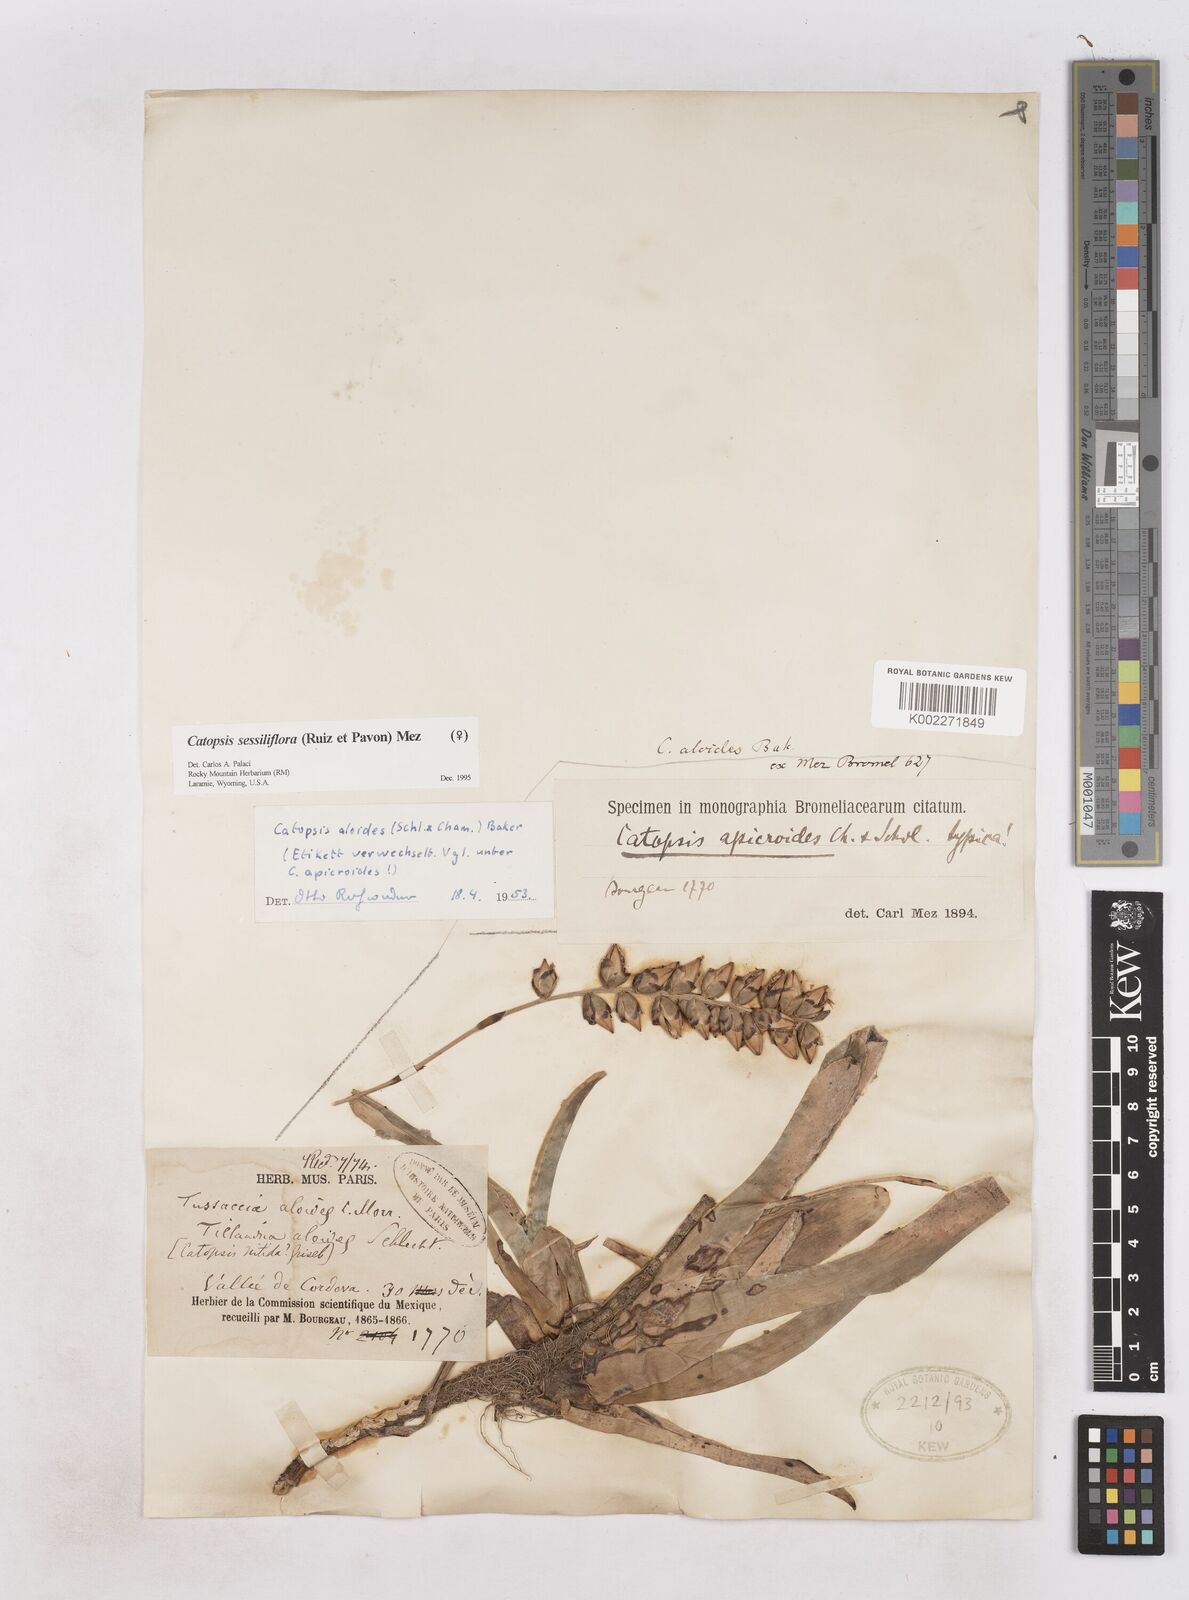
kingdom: Plantae
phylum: Tracheophyta
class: Liliopsida
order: Poales
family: Bromeliaceae
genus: Catopsis
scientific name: Catopsis sessiliflora
